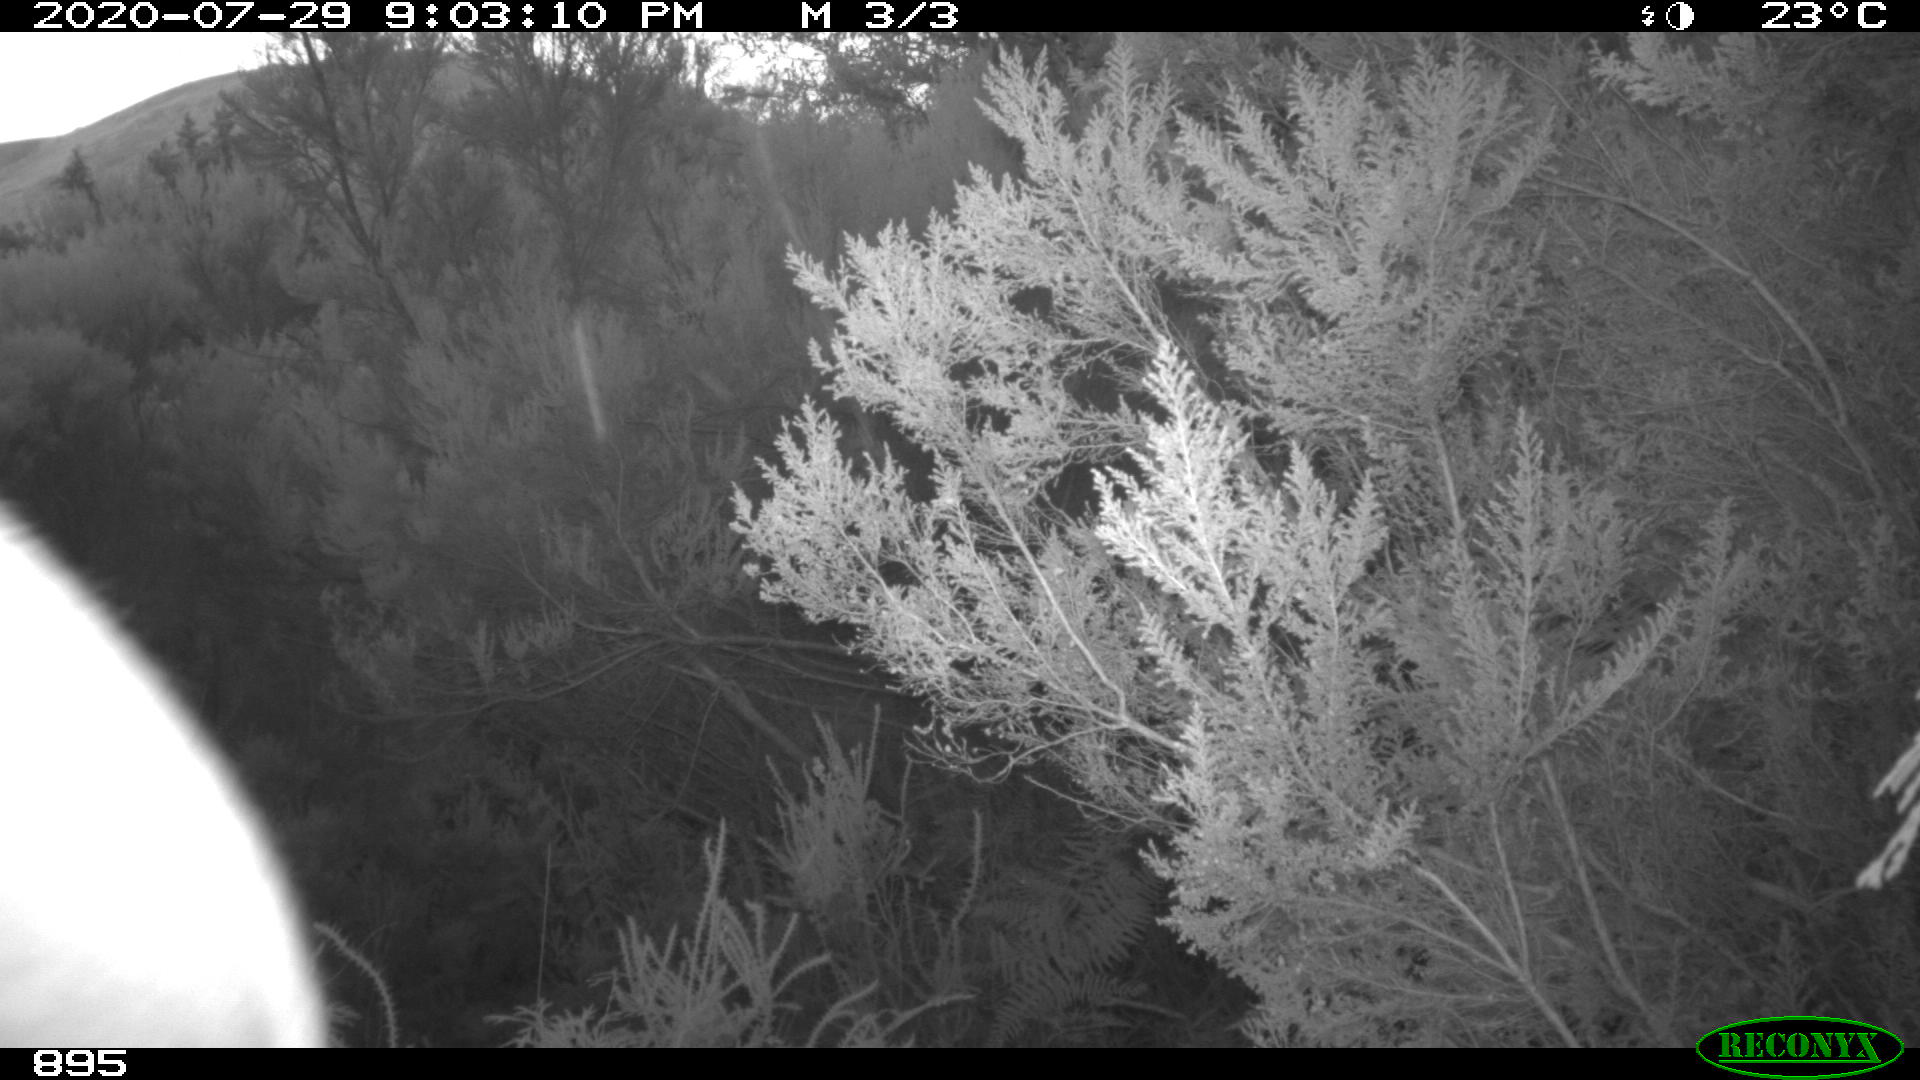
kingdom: Animalia
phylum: Chordata
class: Mammalia
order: Artiodactyla
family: Bovidae
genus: Bos
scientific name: Bos taurus
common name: Domesticated cattle
